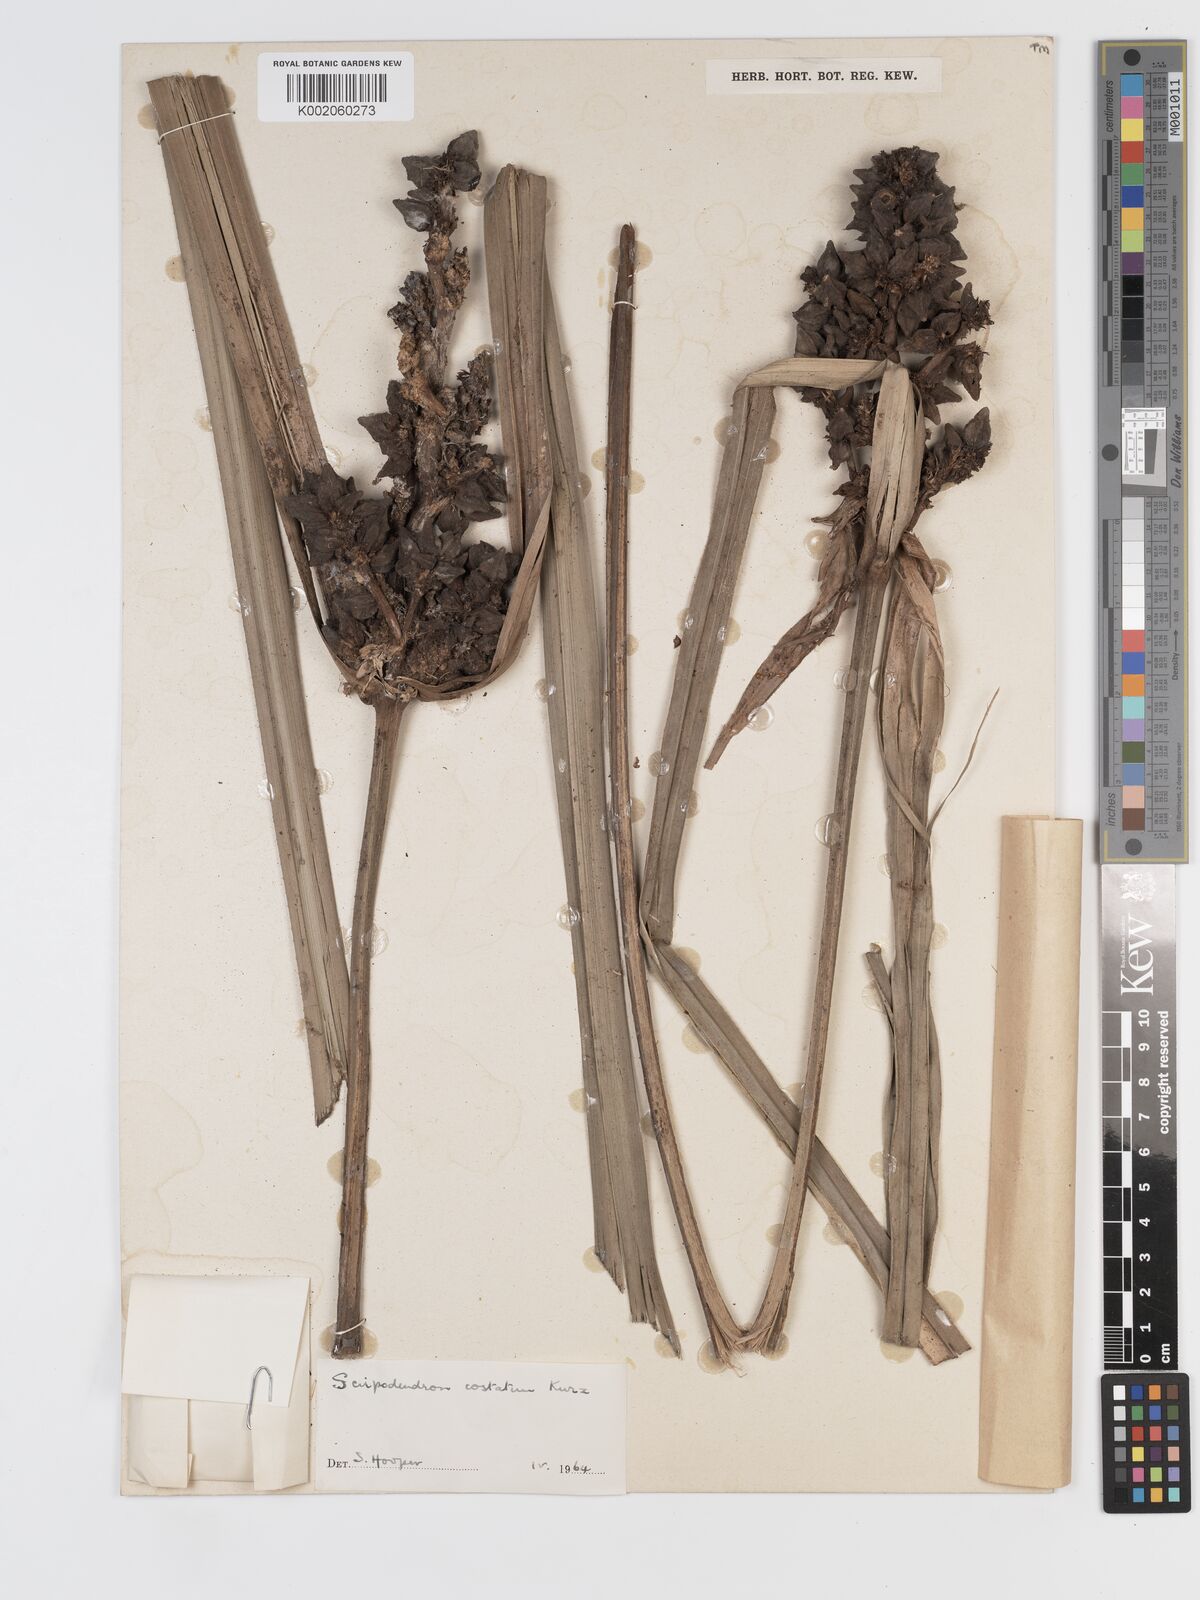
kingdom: Plantae
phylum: Tracheophyta
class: Liliopsida
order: Poales
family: Cyperaceae
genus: Scirpodendron
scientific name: Scirpodendron
